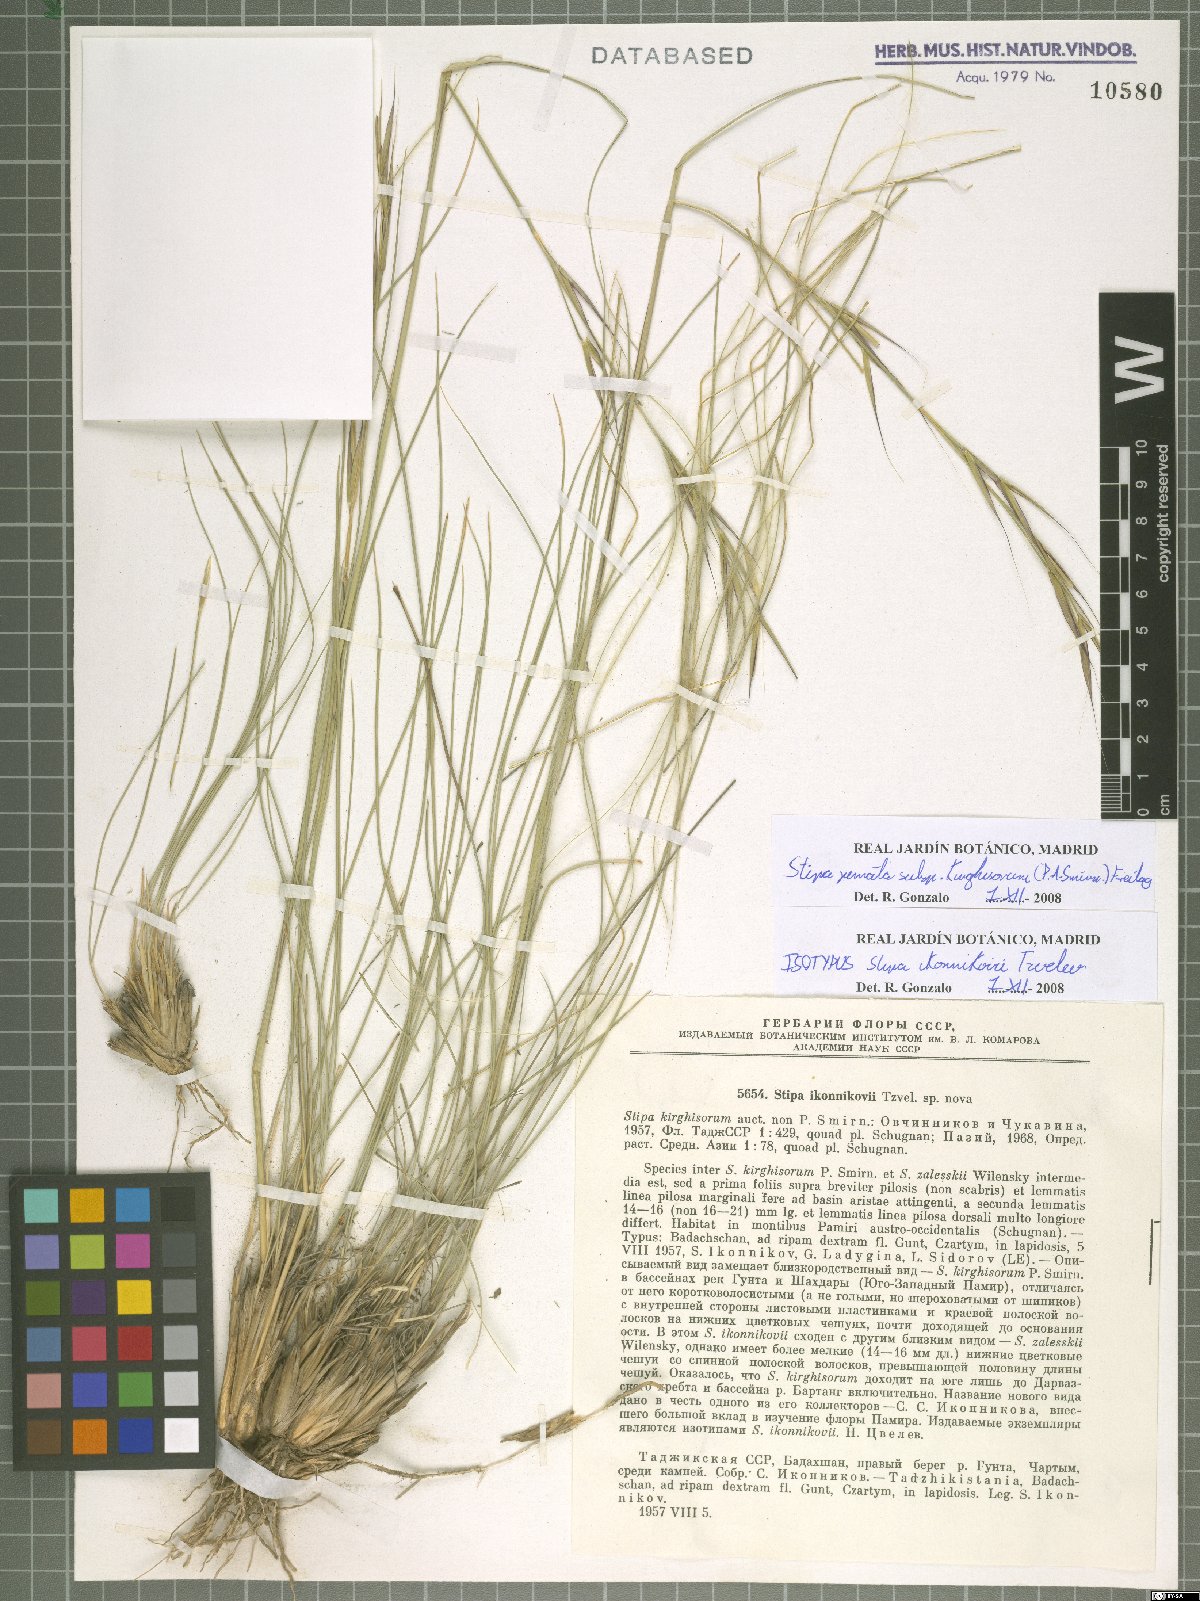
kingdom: Plantae
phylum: Tracheophyta
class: Liliopsida
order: Poales
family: Poaceae
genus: Stipa
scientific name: Stipa kirghisorum
